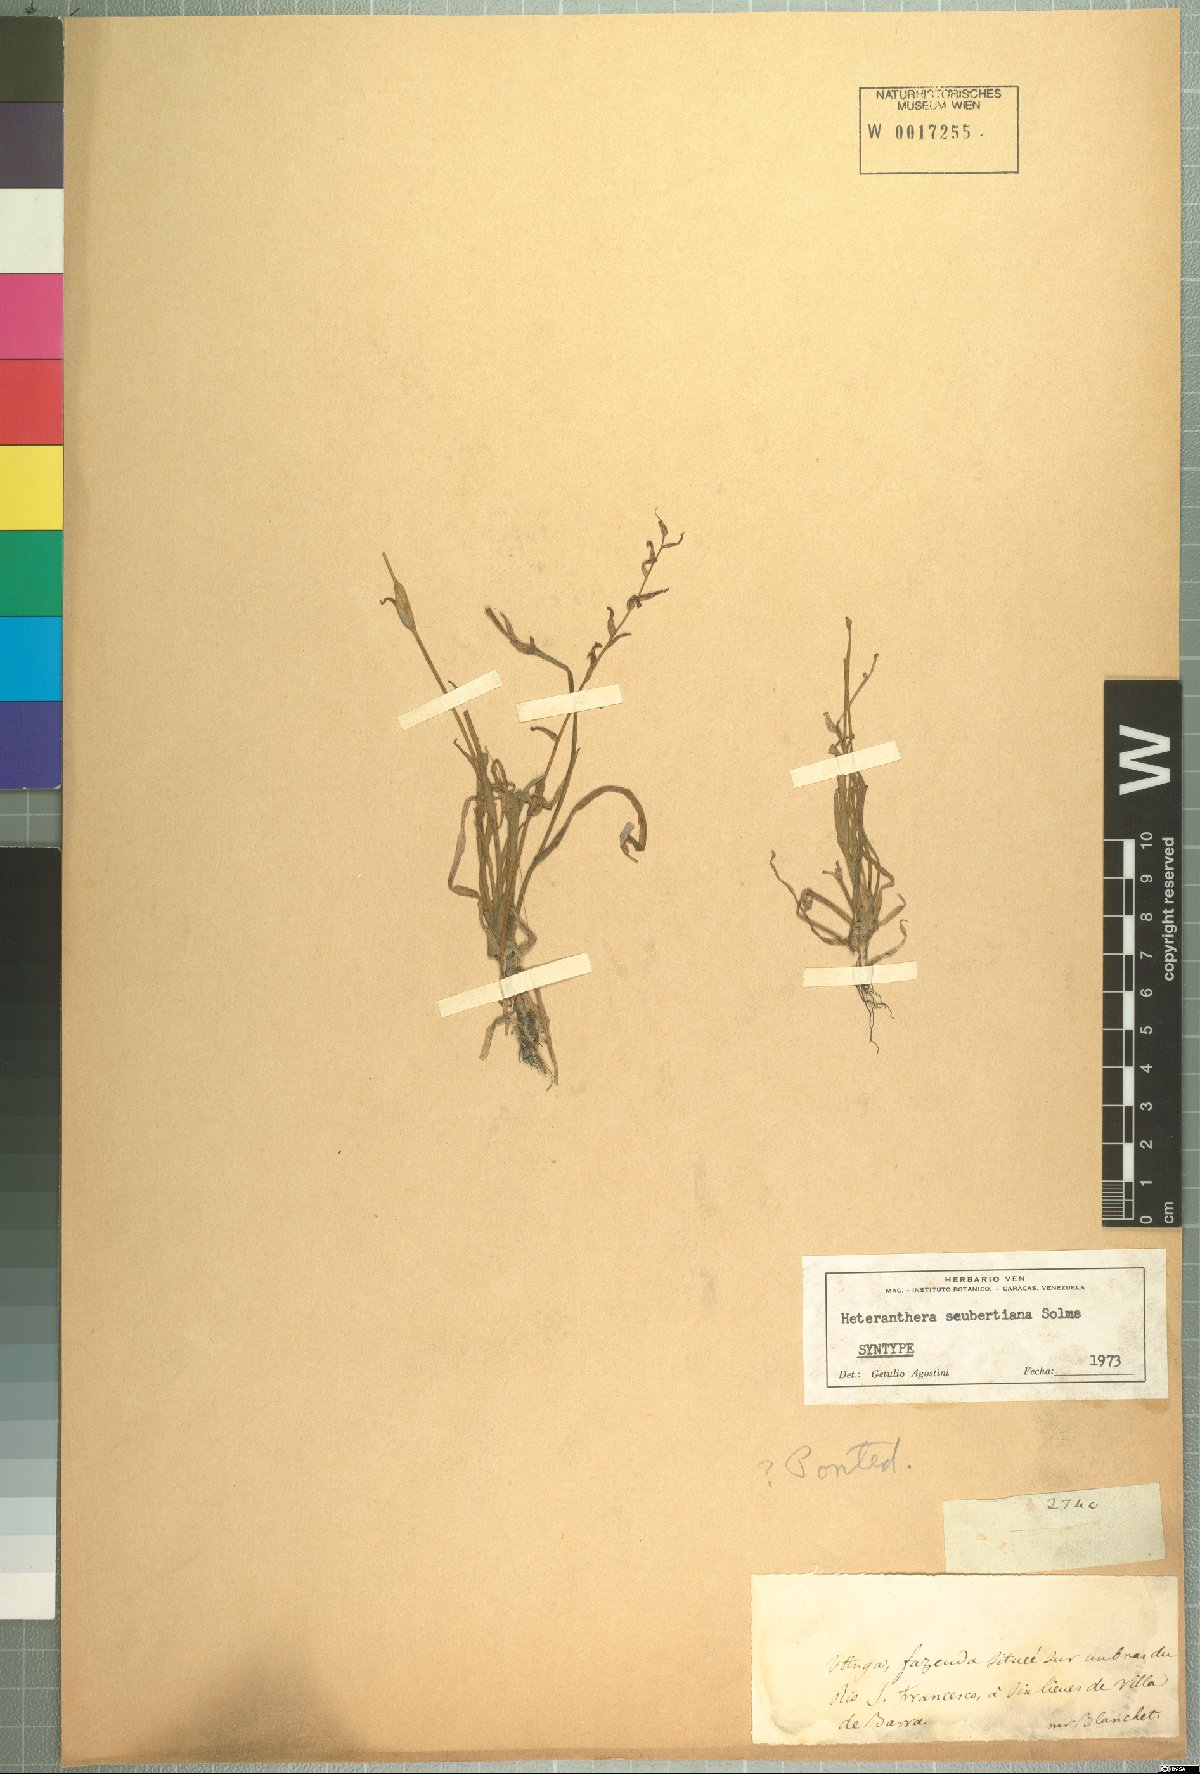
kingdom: Plantae
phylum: Tracheophyta
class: Liliopsida
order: Commelinales
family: Pontederiaceae
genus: Heteranthera
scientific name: Heteranthera seubertiana
